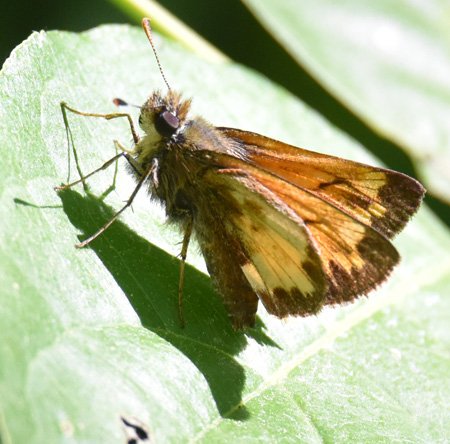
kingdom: Animalia
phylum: Arthropoda
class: Insecta
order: Lepidoptera
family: Hesperiidae
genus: Lon
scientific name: Lon hobomok
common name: Hobomok Skipper
